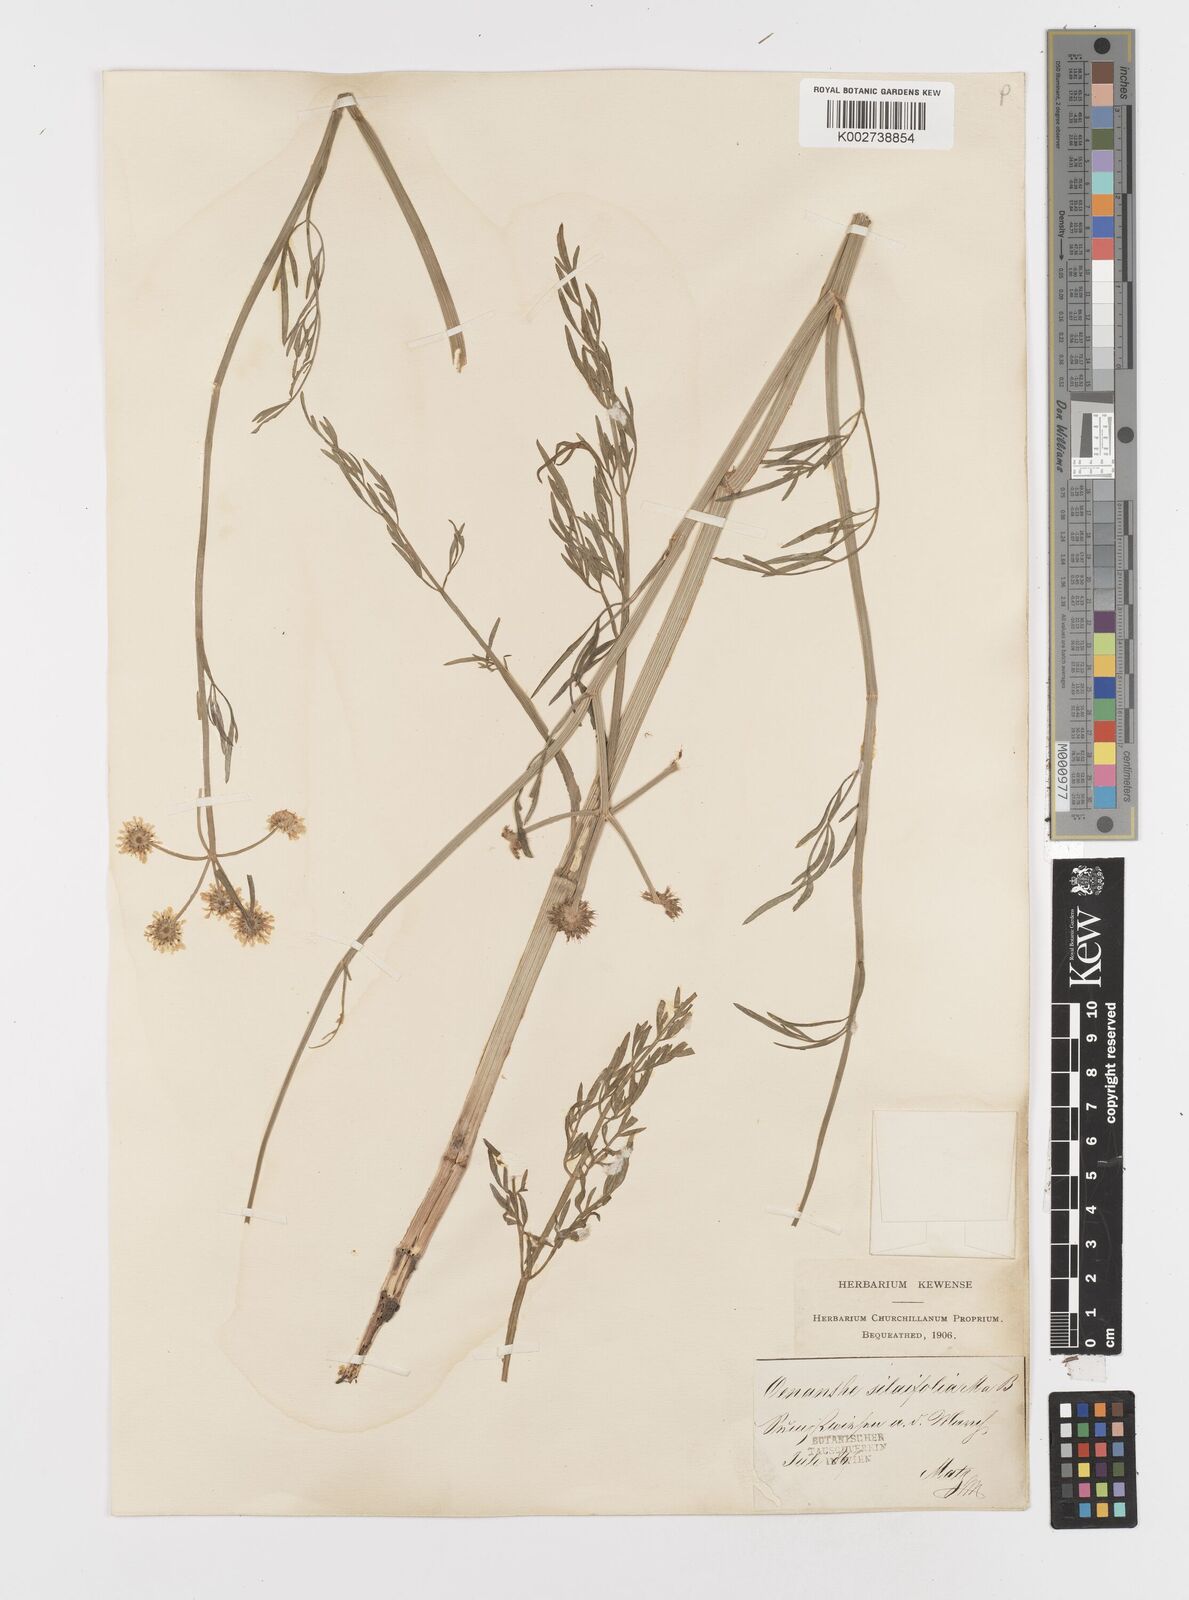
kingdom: Plantae
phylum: Tracheophyta
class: Magnoliopsida
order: Apiales
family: Apiaceae
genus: Oenanthe
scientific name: Oenanthe silaifolia
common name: Narrow-leaved water-dropwort
